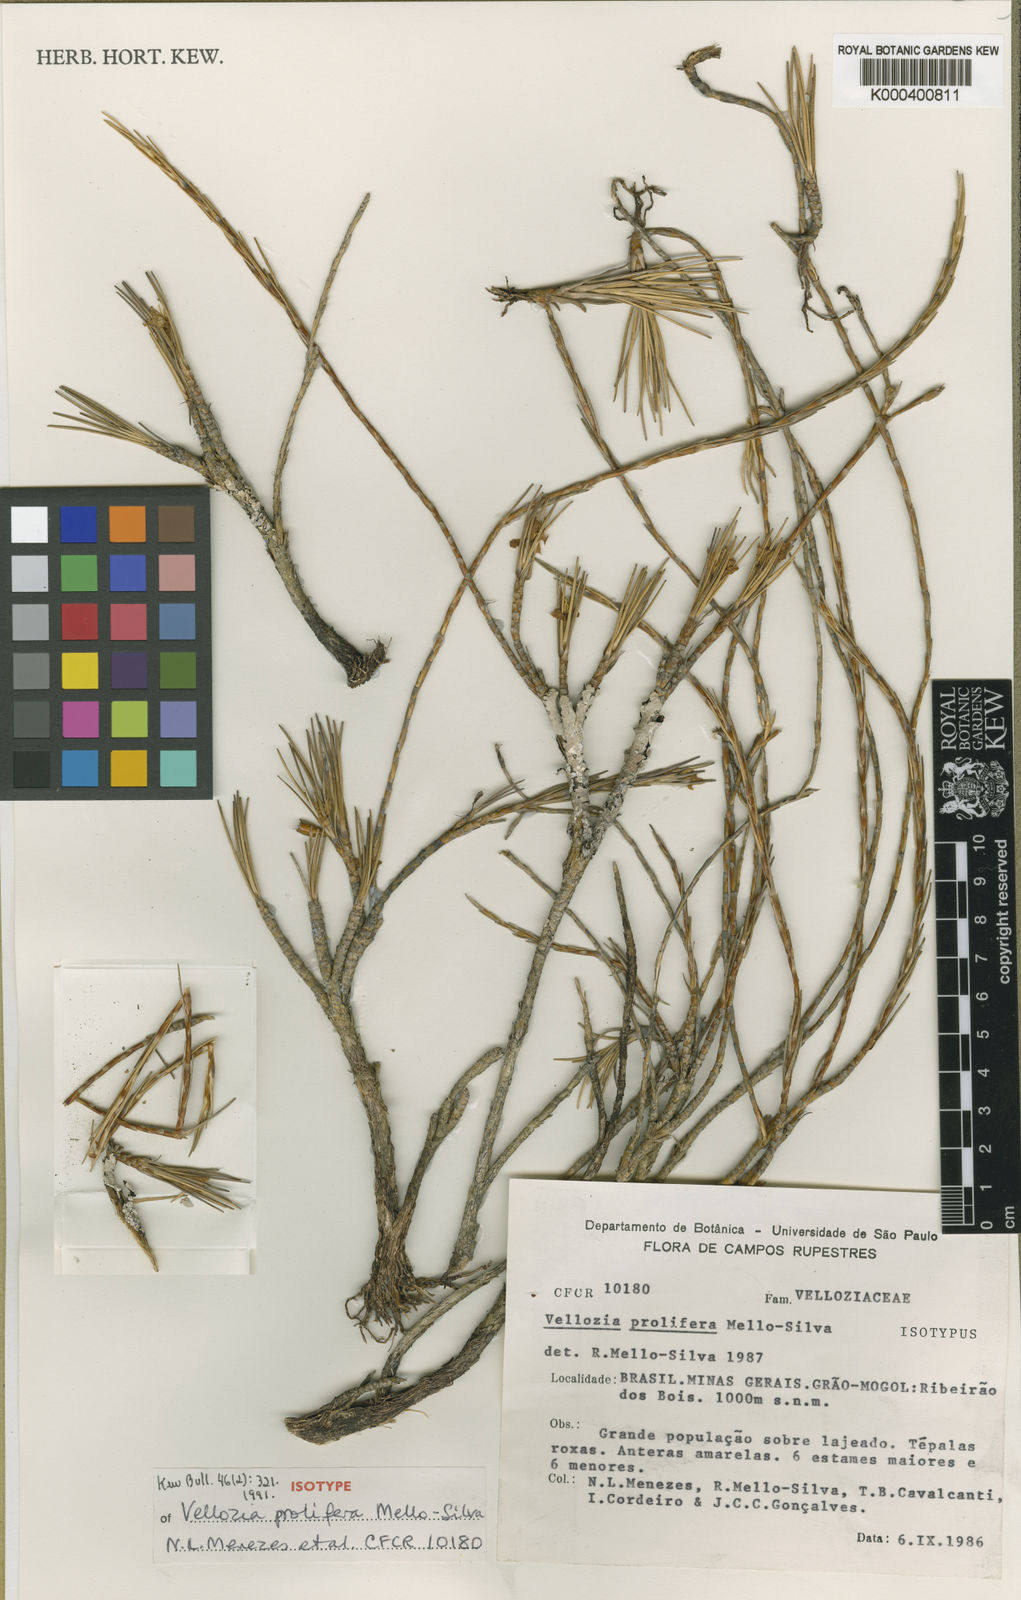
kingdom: Plantae
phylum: Tracheophyta
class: Liliopsida
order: Pandanales
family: Velloziaceae
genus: Vellozia
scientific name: Vellozia prolifera
